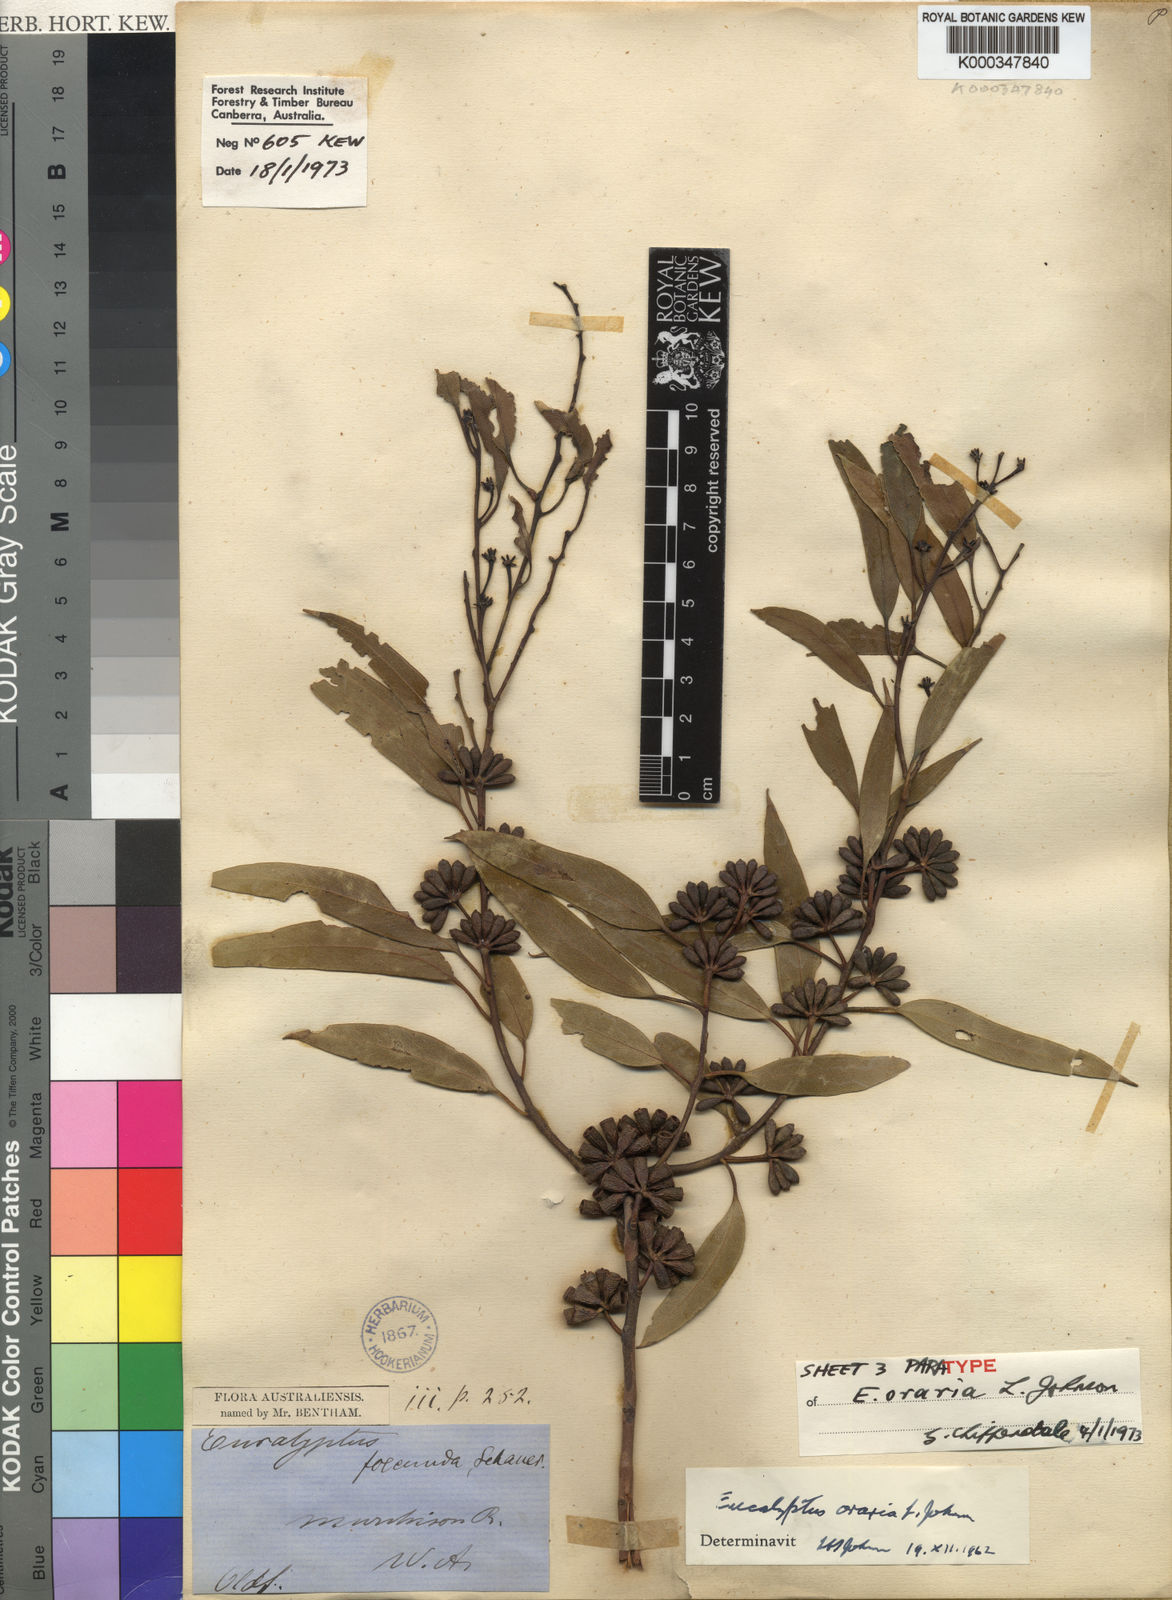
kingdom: Plantae
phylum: Tracheophyta
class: Magnoliopsida
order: Myrtales
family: Myrtaceae
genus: Eucalyptus
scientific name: Eucalyptus oraria
